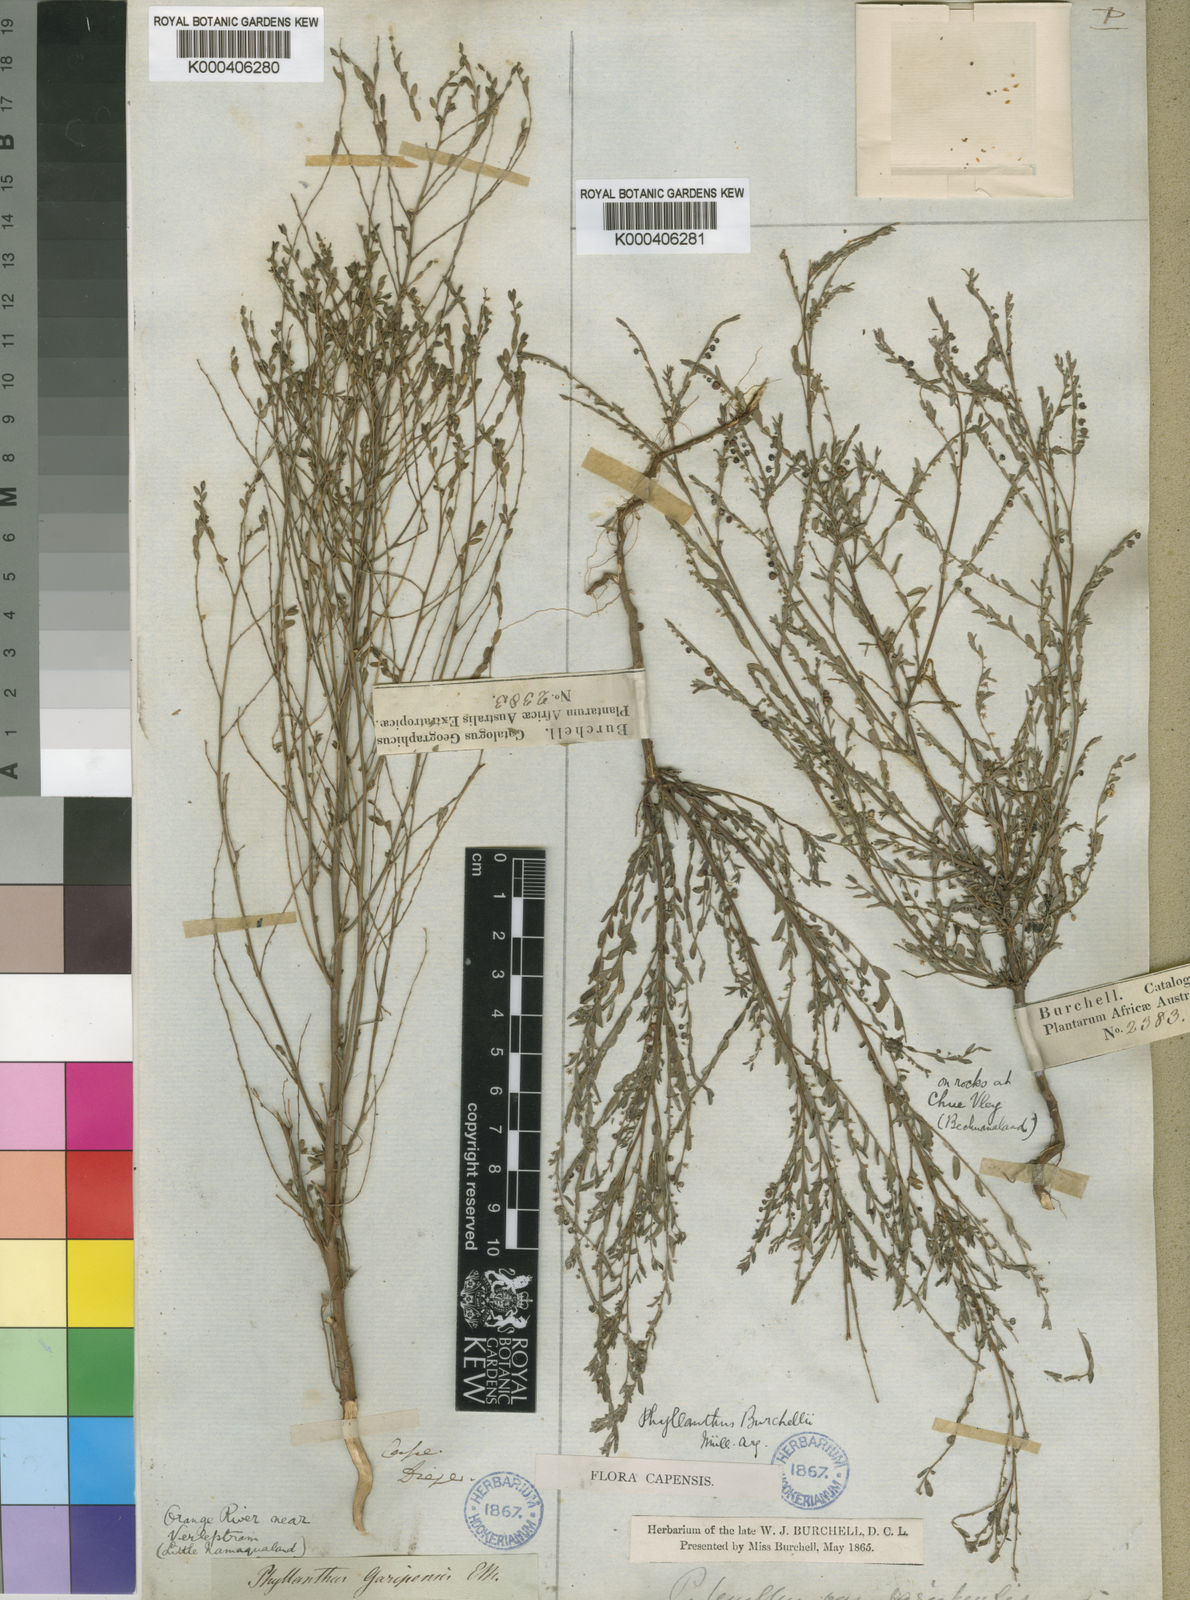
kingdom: Plantae
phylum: Tracheophyta
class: Magnoliopsida
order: Malpighiales
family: Phyllanthaceae
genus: Phyllanthus
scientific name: Phyllanthus
